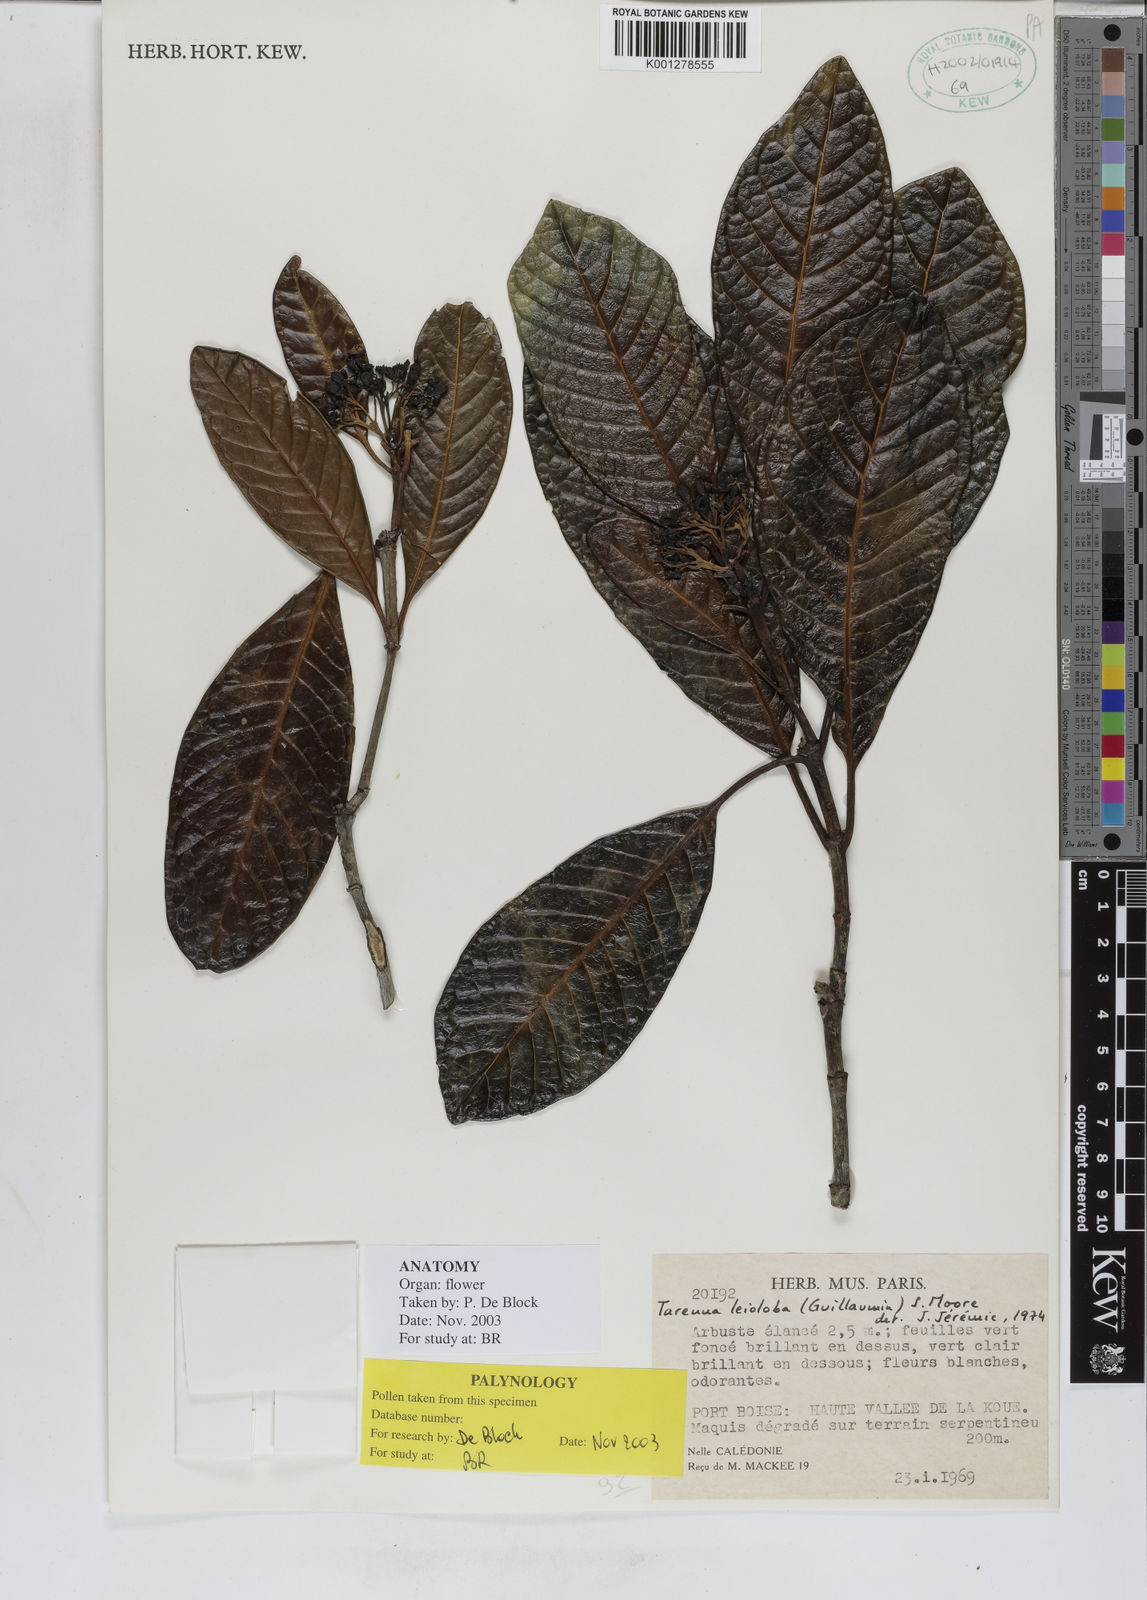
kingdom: Plantae
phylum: Tracheophyta
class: Magnoliopsida
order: Gentianales
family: Rubiaceae
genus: Tarenna
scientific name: Tarenna leioloba
